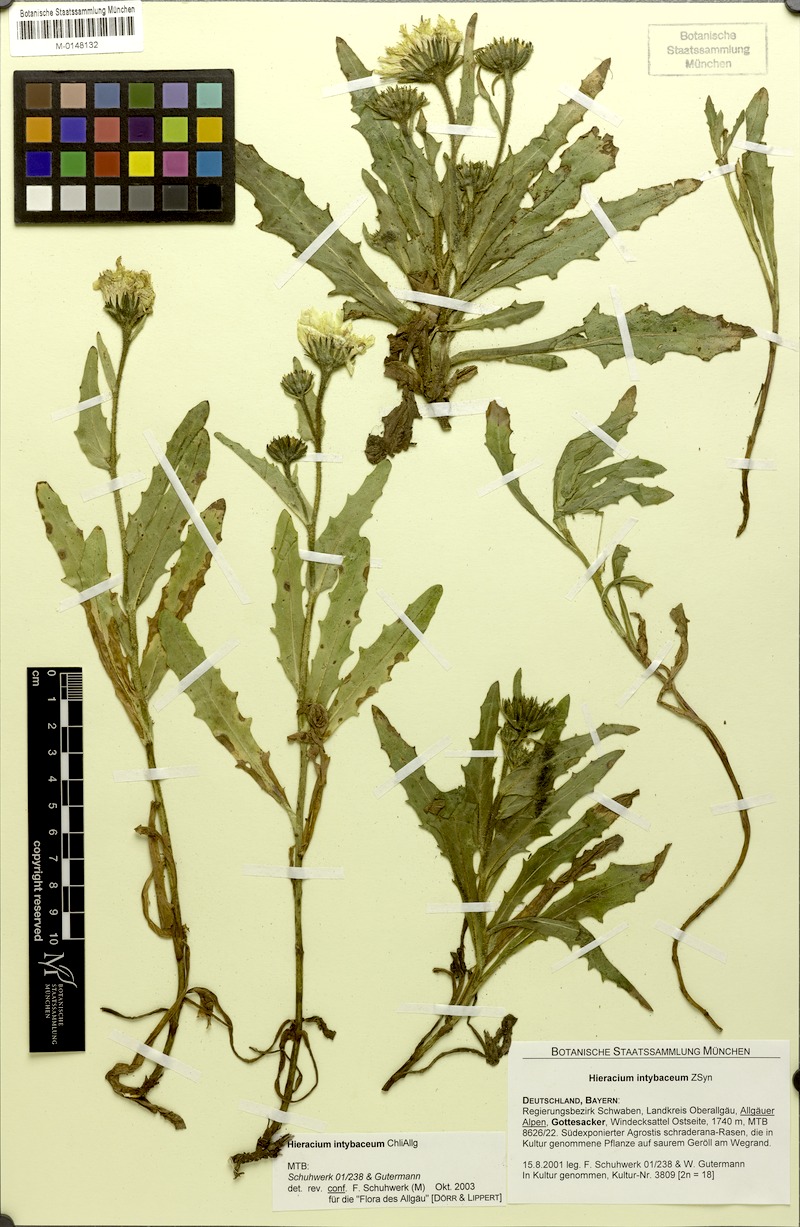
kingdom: Plantae
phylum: Tracheophyta
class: Magnoliopsida
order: Asterales
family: Asteraceae
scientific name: Asteraceae
